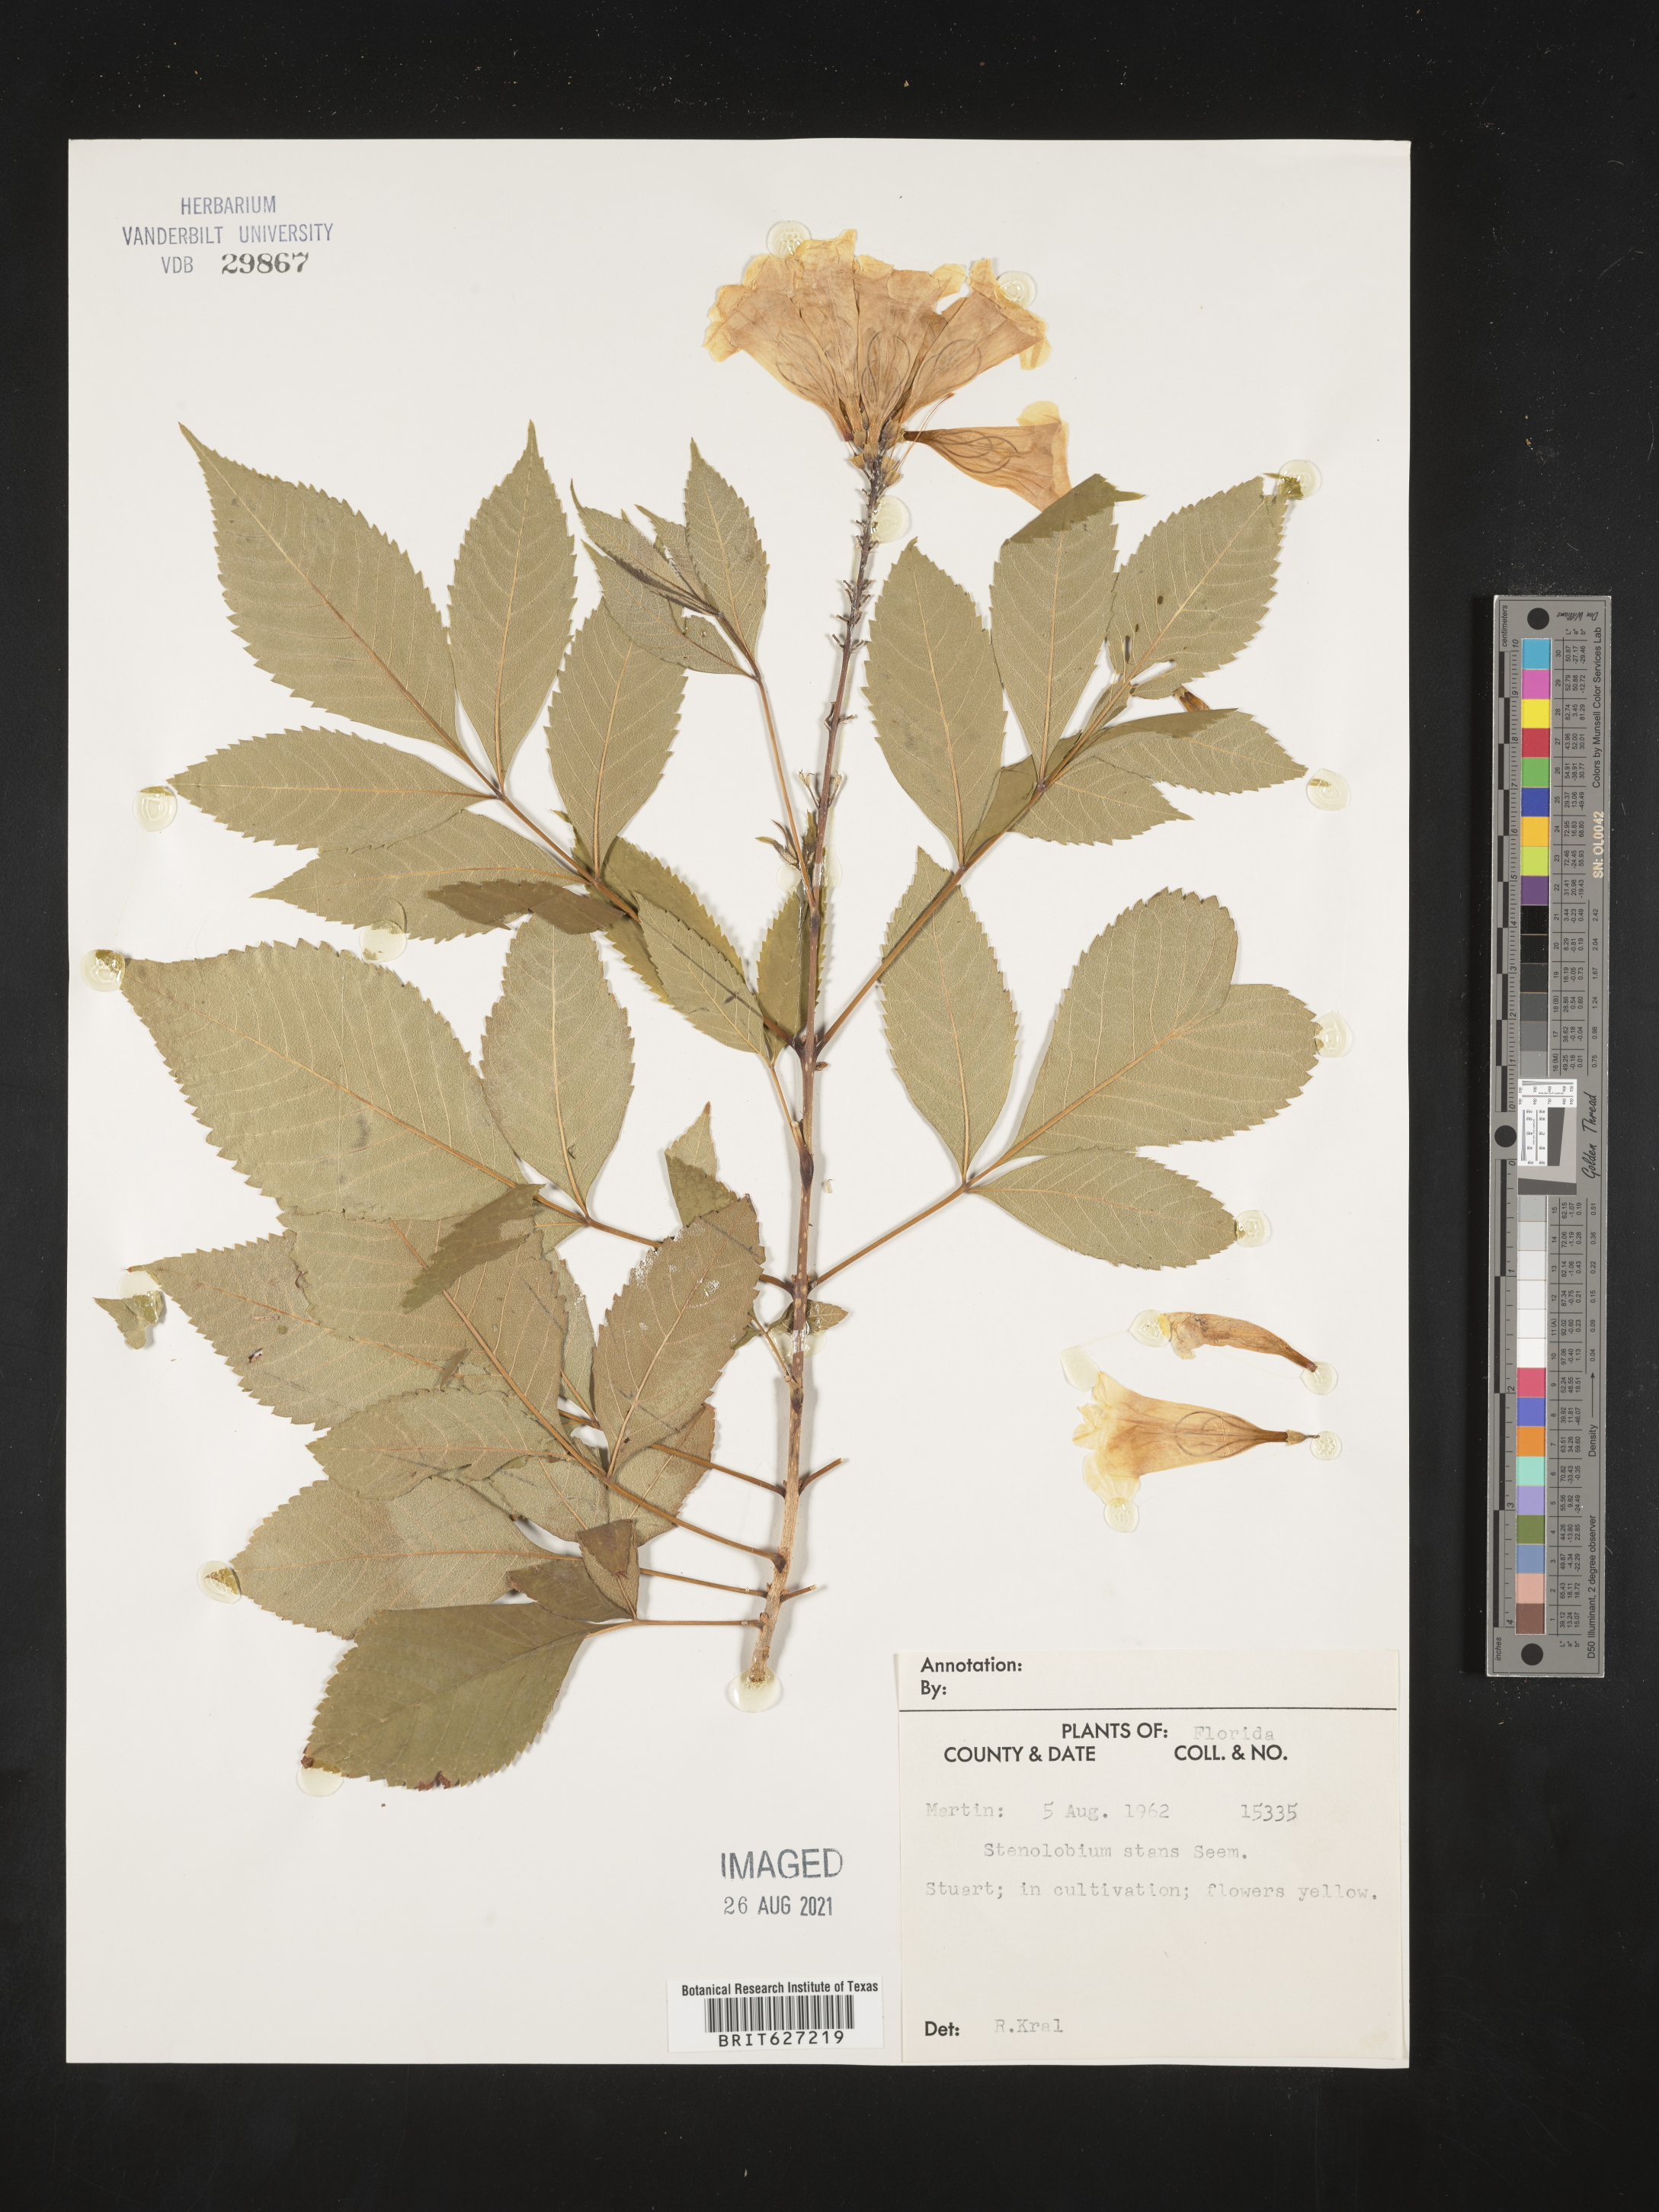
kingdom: Plantae
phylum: Tracheophyta
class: Magnoliopsida
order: Lamiales
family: Bignoniaceae
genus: Tecoma
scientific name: Tecoma stans
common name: Yellow trumpetbush
